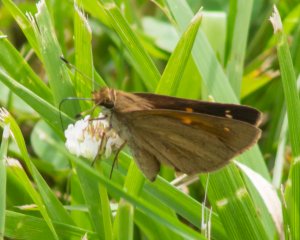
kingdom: Animalia
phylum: Arthropoda
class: Insecta
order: Lepidoptera
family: Hesperiidae
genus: Poanes
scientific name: Poanes viator
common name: Broad-winged Skipper
